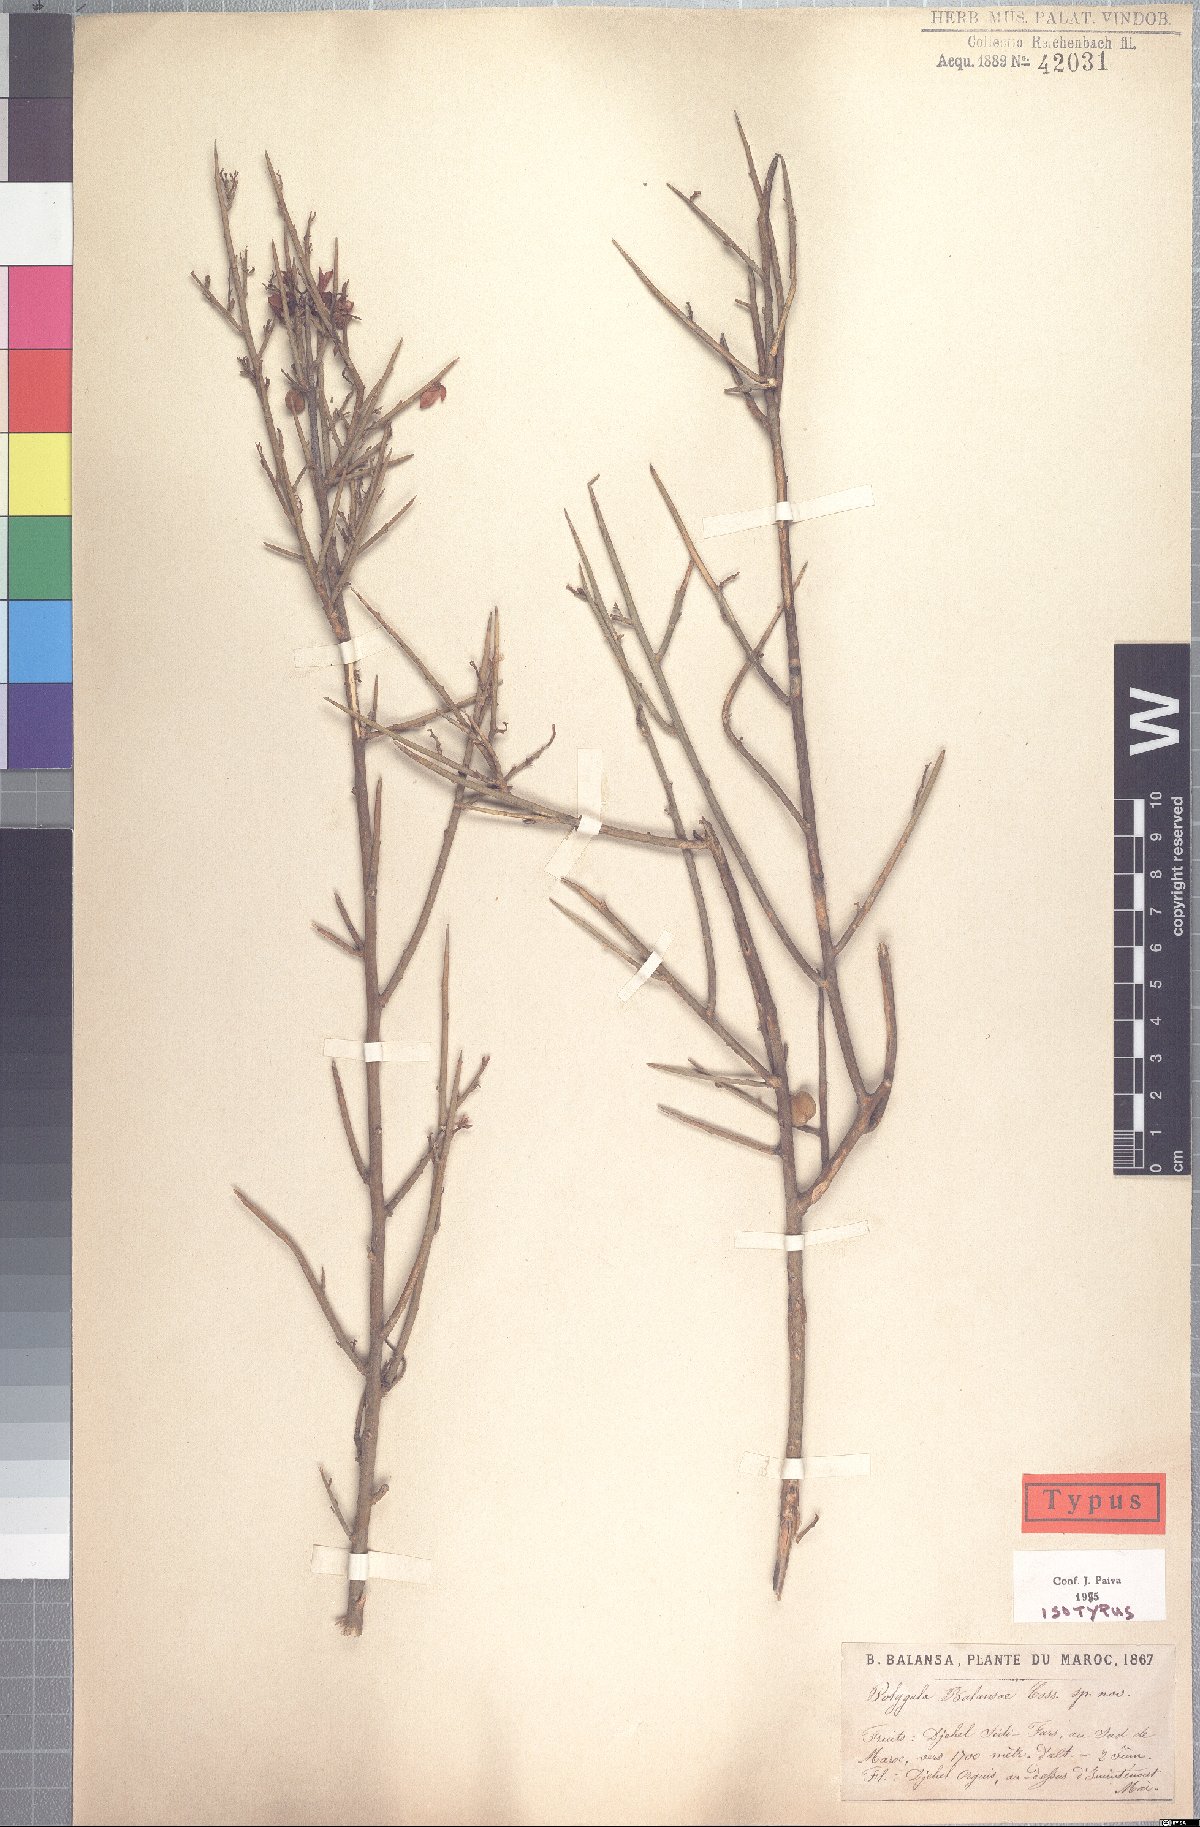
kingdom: Plantae
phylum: Tracheophyta
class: Magnoliopsida
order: Fabales
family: Polygalaceae
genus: Polygaloides
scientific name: Polygaloides balansae
